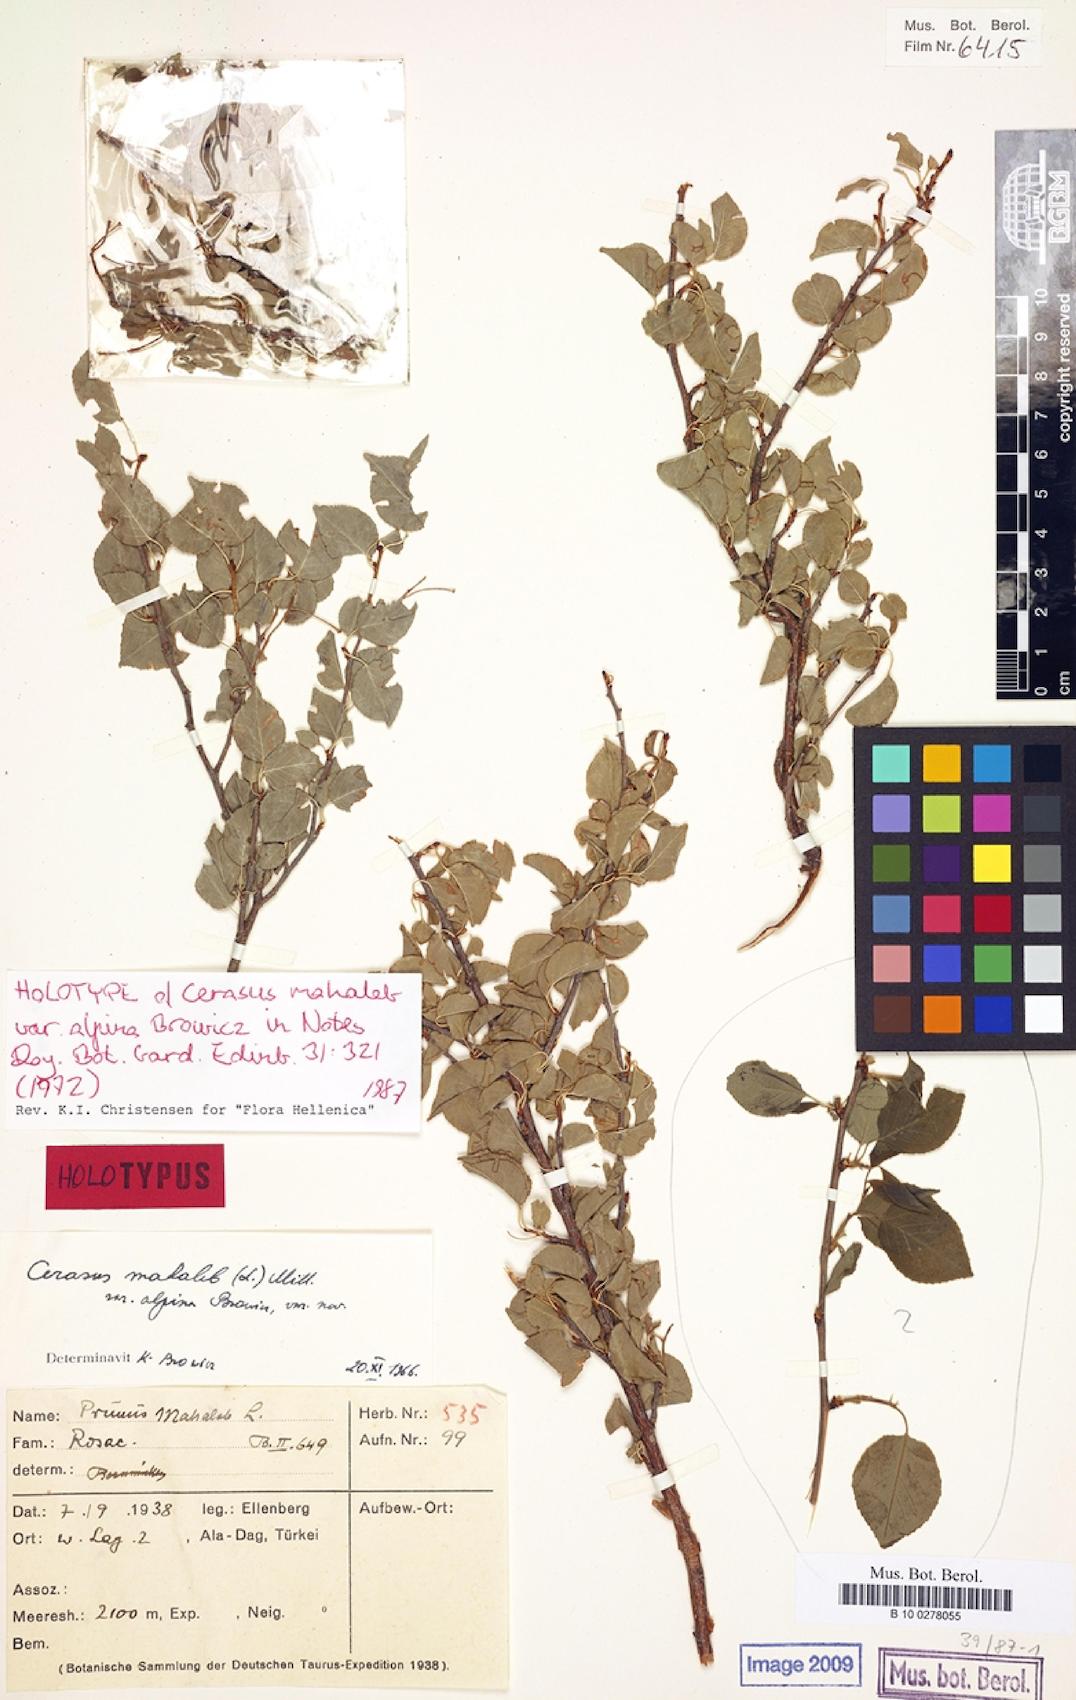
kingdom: Plantae
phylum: Tracheophyta
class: Magnoliopsida
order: Rosales
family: Rosaceae
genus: Prunus
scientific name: Prunus mahaleb
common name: Mahaleb cherry
